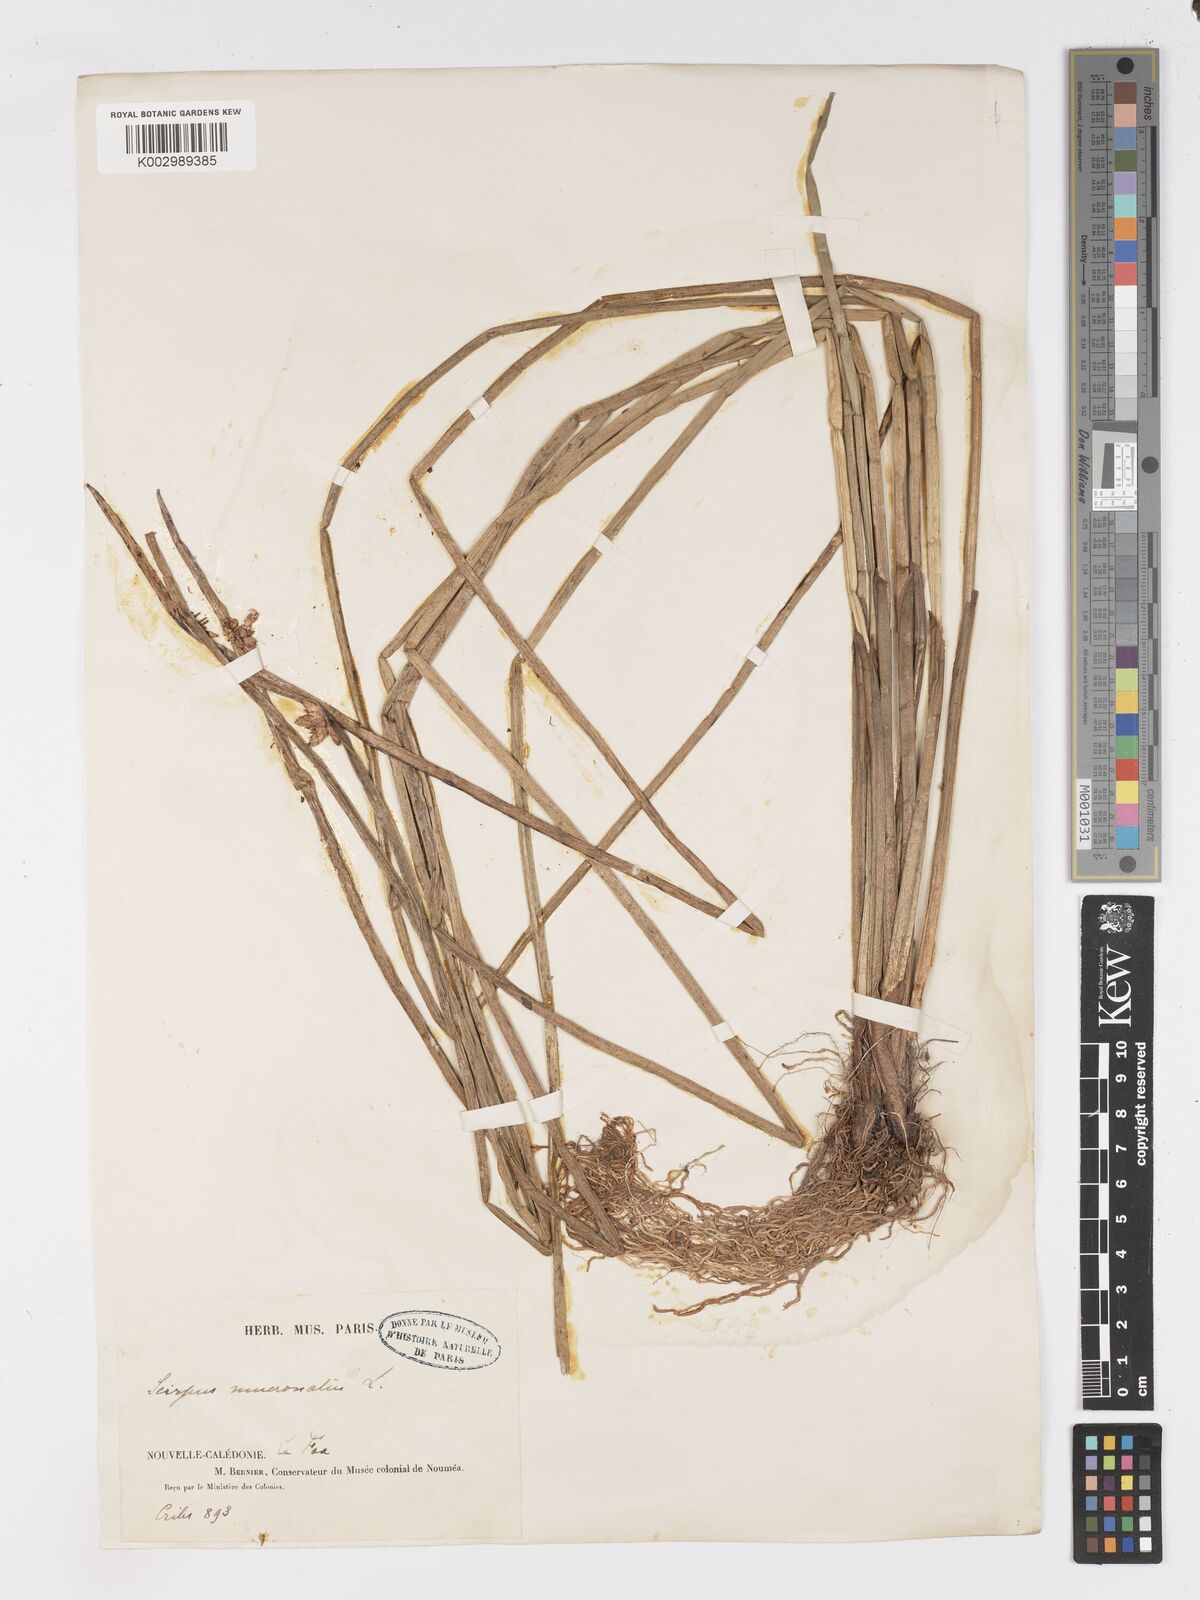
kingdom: Plantae
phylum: Tracheophyta
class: Liliopsida
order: Poales
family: Cyperaceae
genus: Schoenoplectiella
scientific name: Schoenoplectiella mucronata
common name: Bog bulrush
